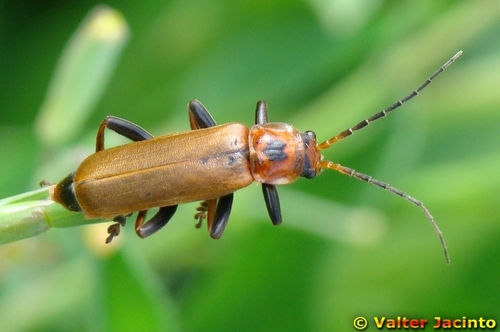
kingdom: Animalia
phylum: Arthropoda
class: Insecta
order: Coleoptera
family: Cantharidae
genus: Cantharis
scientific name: Cantharis coronata
